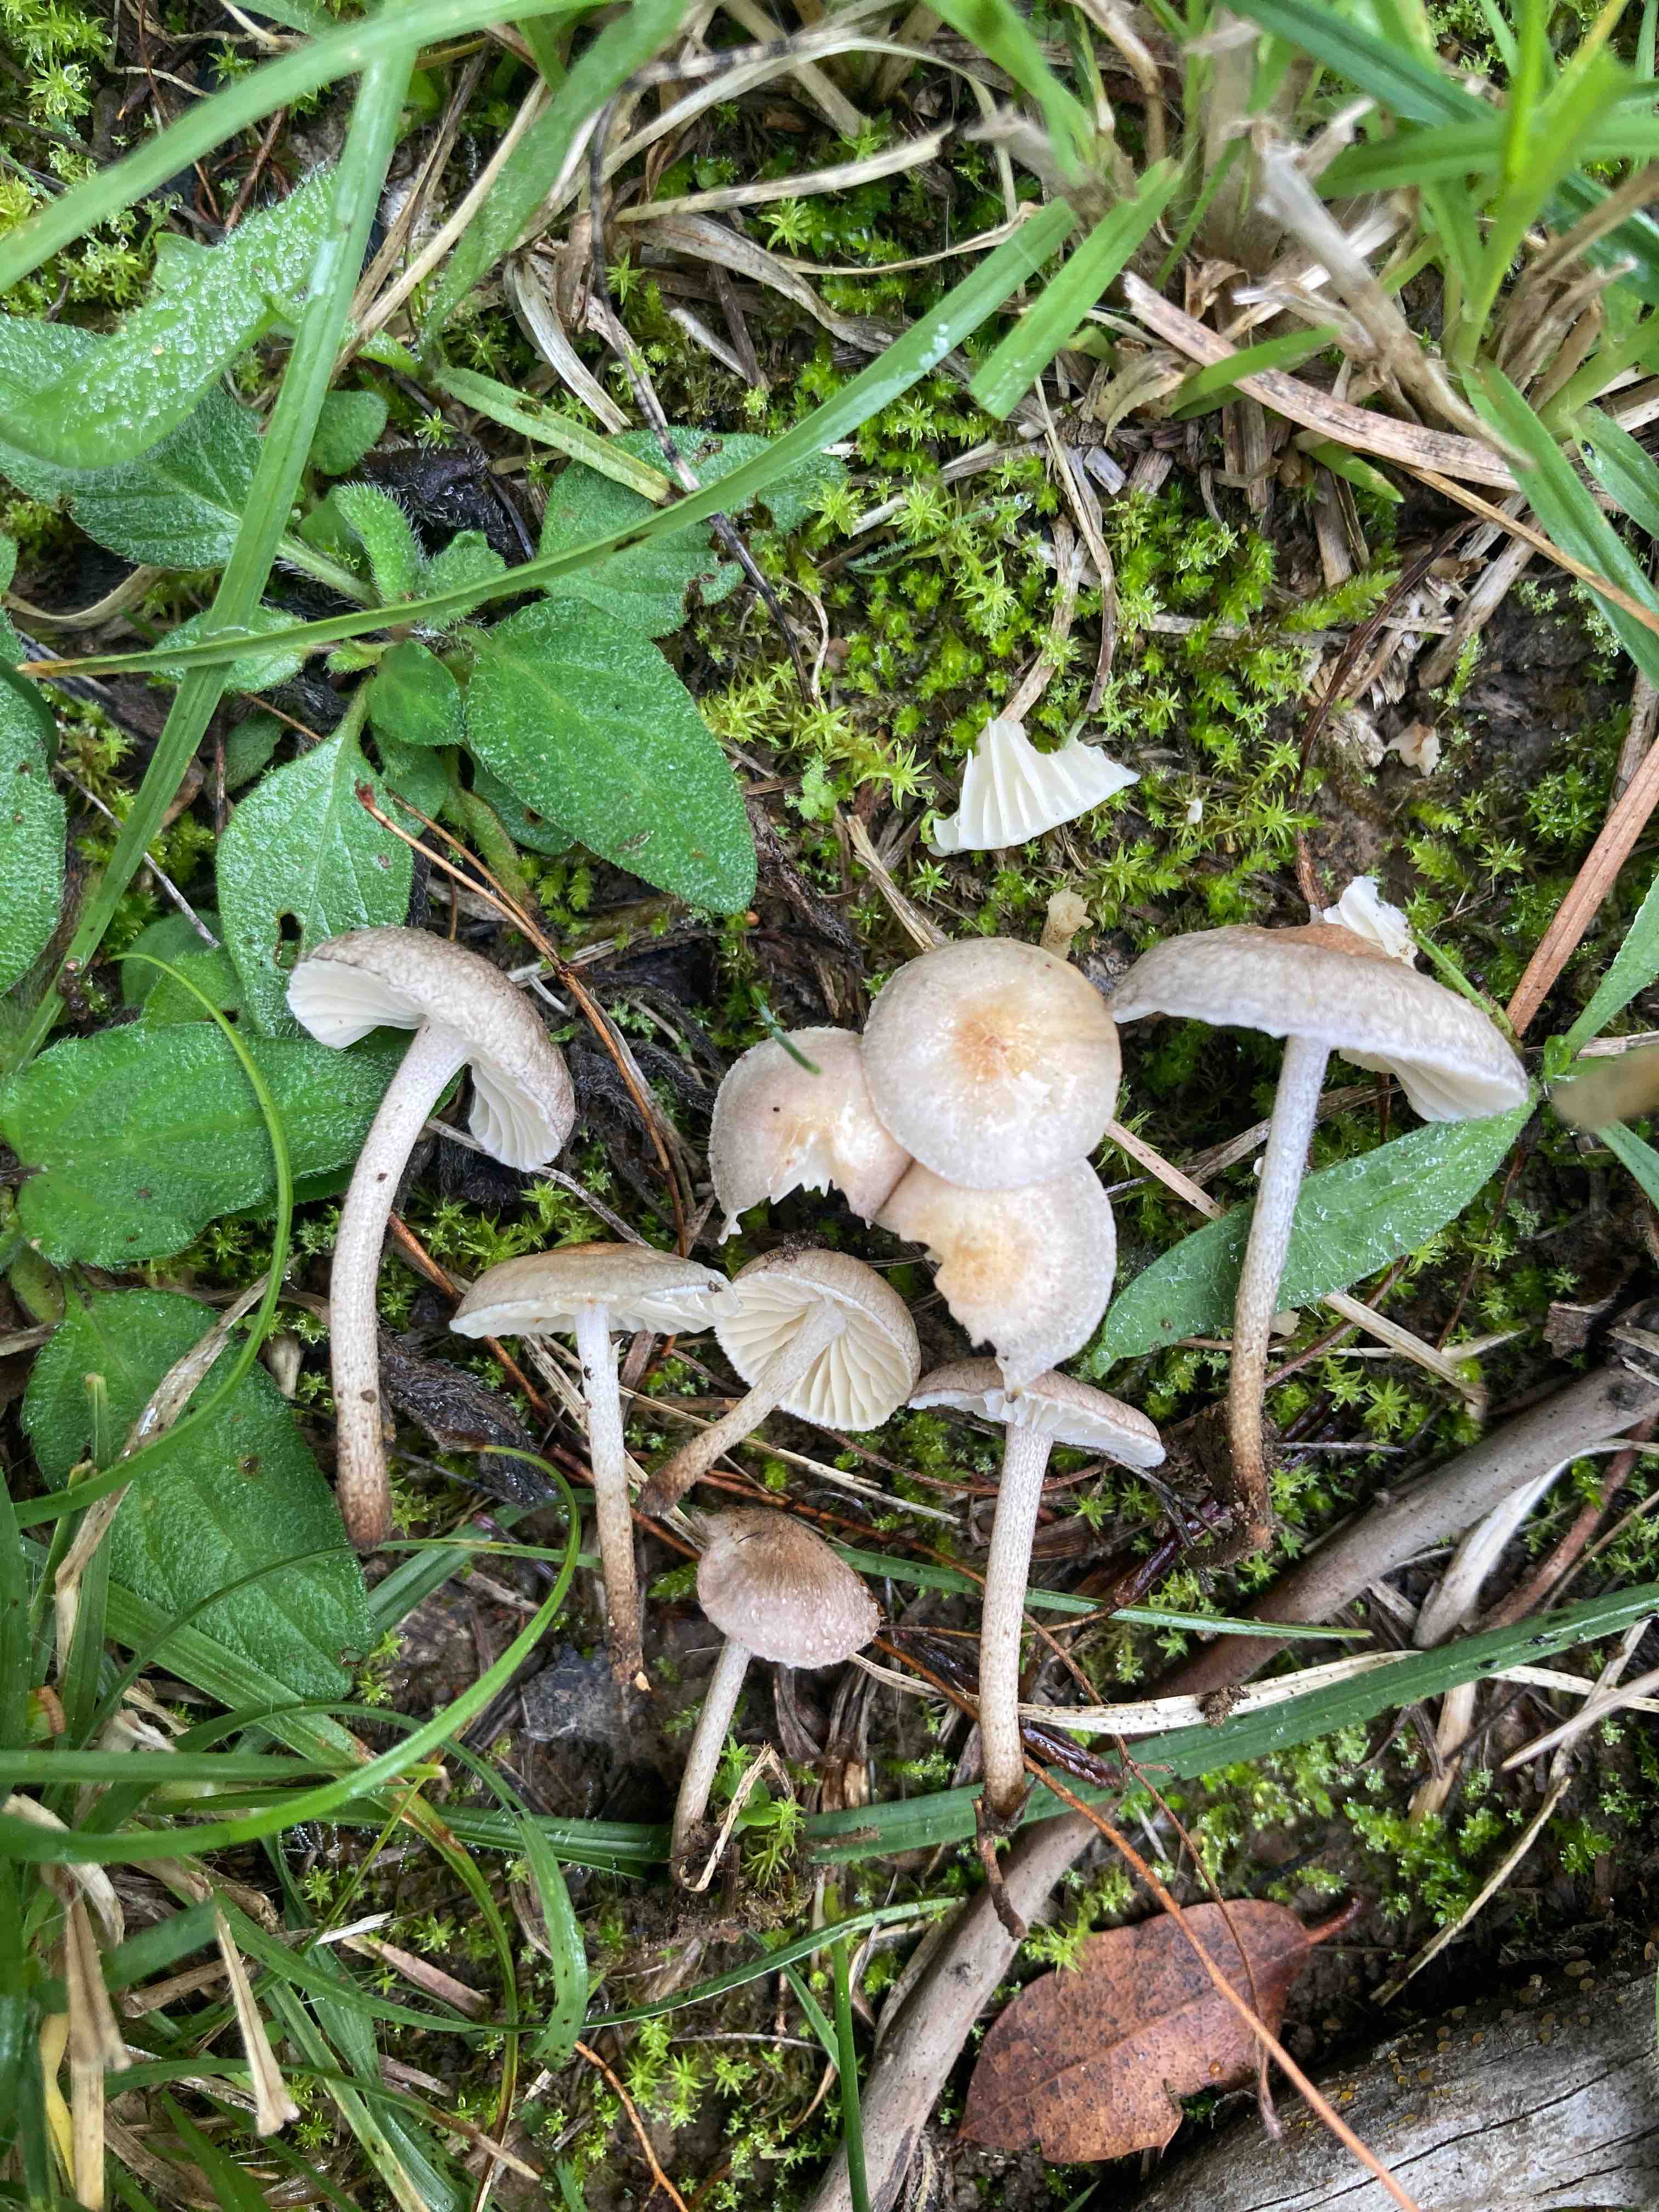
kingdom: Fungi
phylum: Basidiomycota
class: Agaricomycetes
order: Agaricales
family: Marasmiaceae
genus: Crinipellis
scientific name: Crinipellis pedemontana
